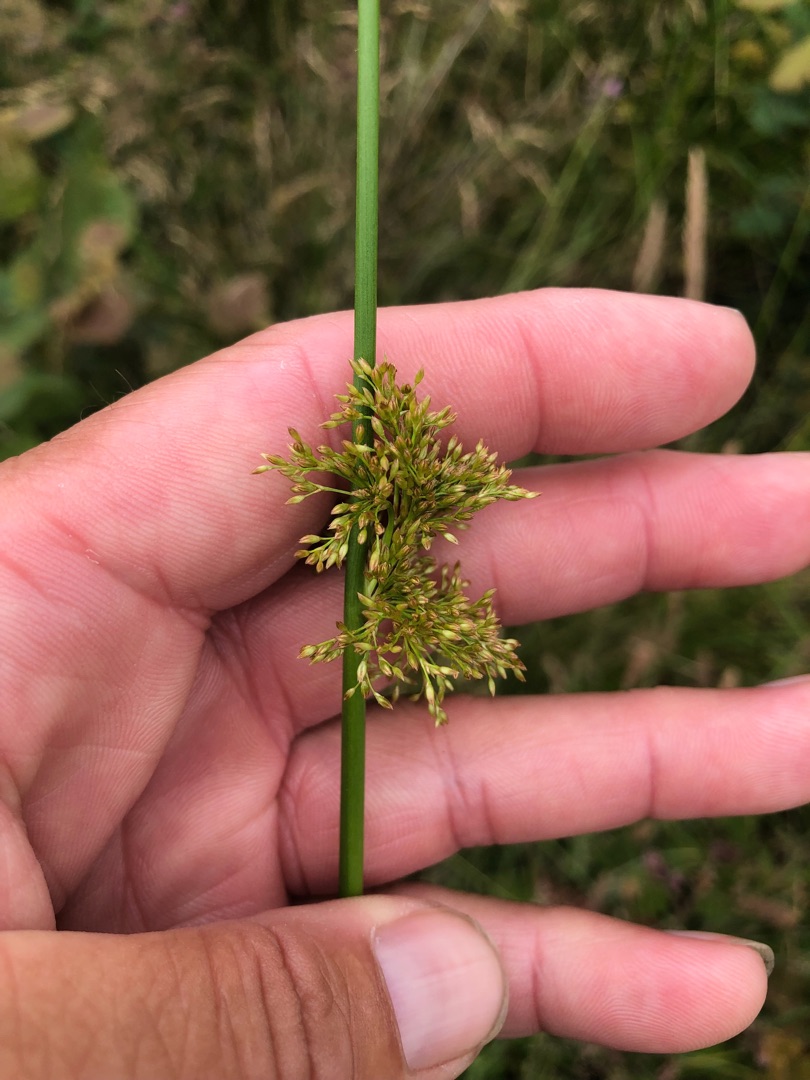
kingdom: Plantae
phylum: Tracheophyta
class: Liliopsida
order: Poales
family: Juncaceae
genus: Juncus
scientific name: Juncus effusus
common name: Lyse-siv
